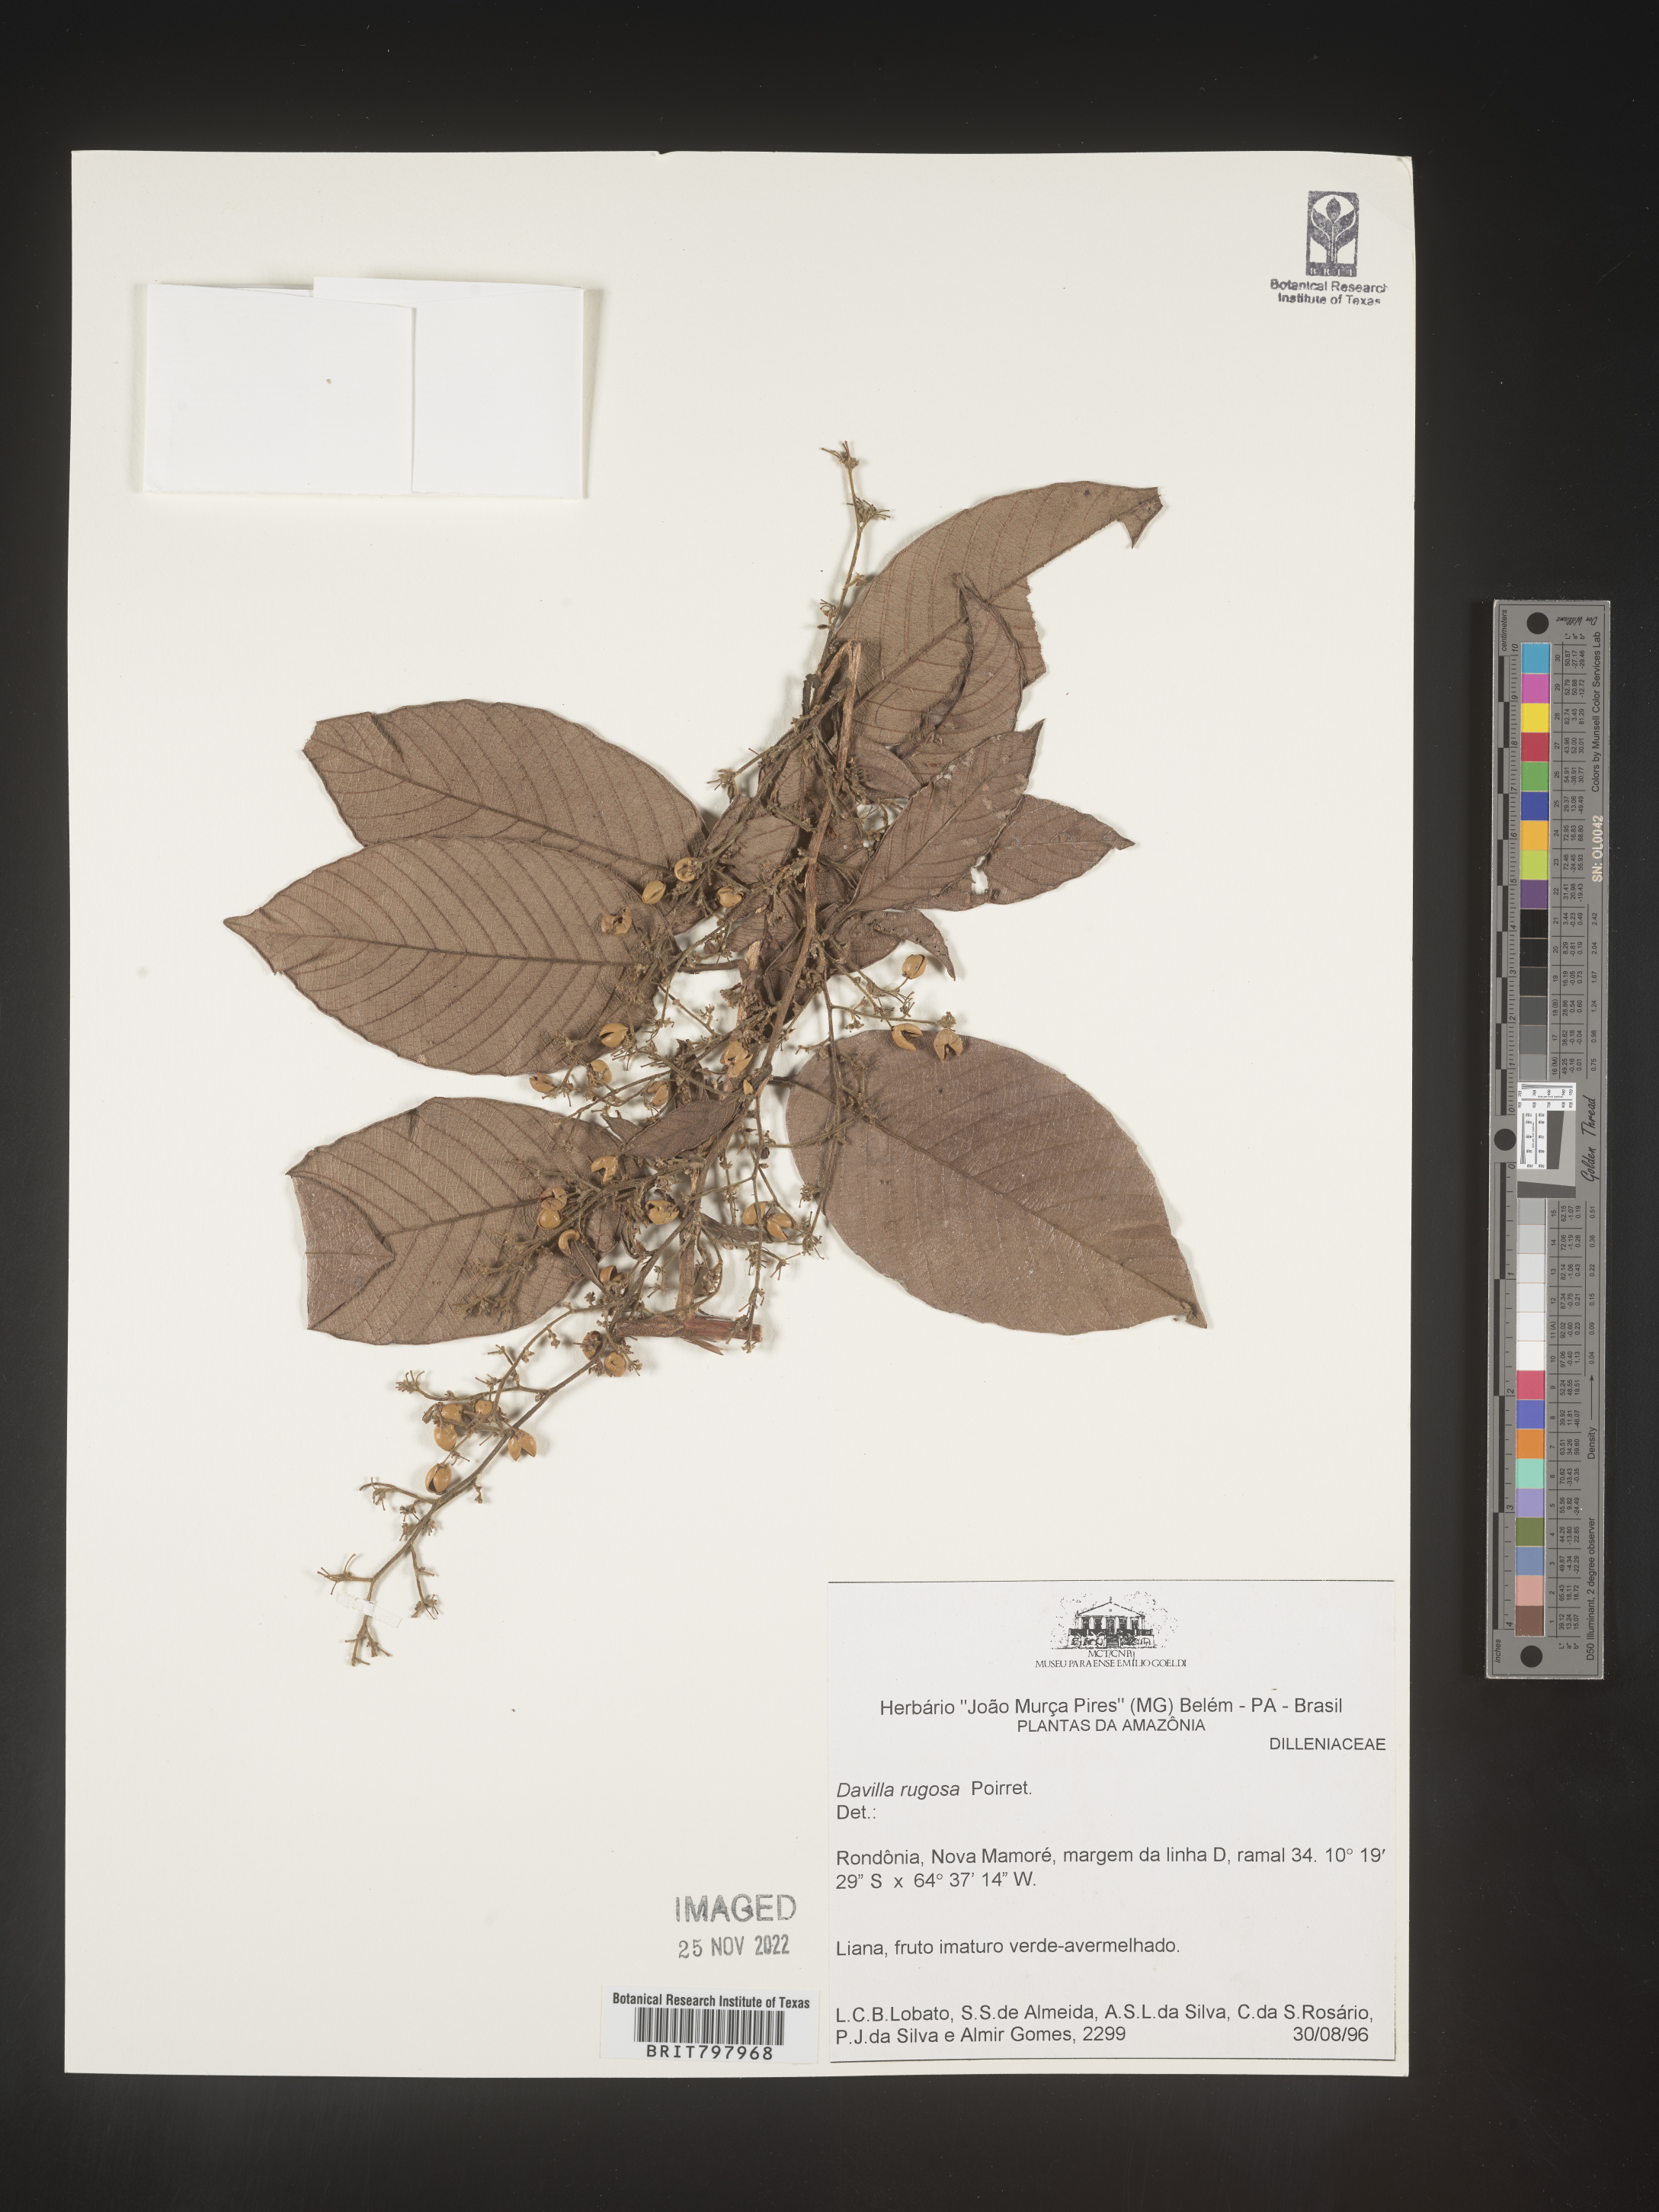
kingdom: Plantae
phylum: Tracheophyta
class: Polypodiopsida
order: Polypodiales
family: Davalliaceae
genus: Davallia
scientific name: Davallia
